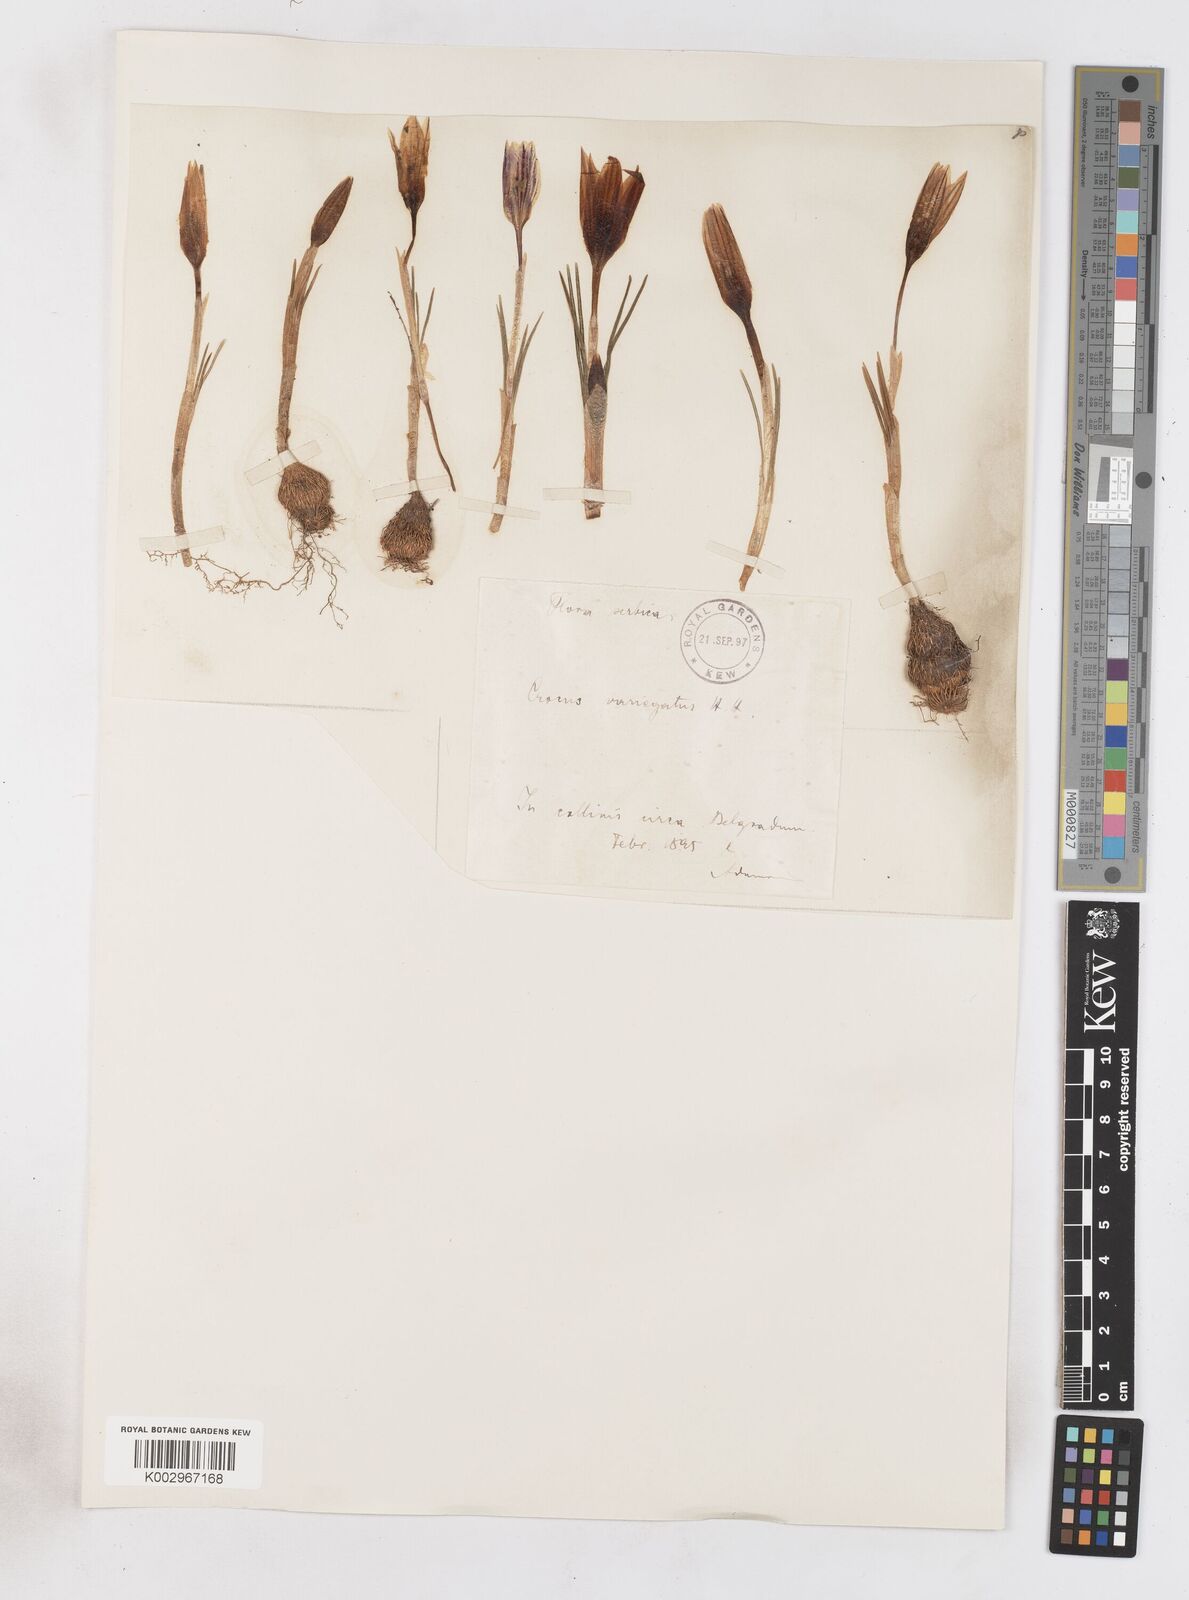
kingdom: Plantae
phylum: Tracheophyta
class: Liliopsida
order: Asparagales
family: Iridaceae
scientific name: Iridaceae
